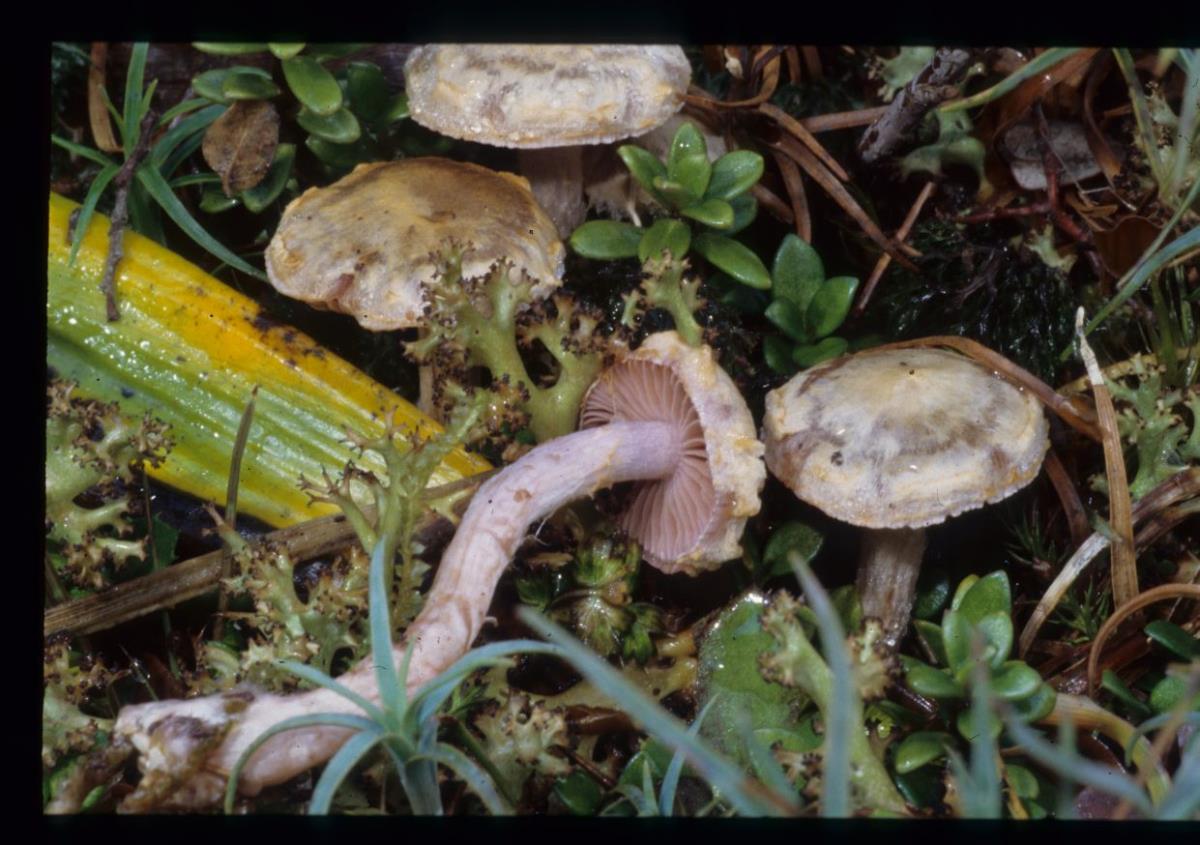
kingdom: Fungi
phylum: Basidiomycota
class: Agaricomycetes
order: Agaricales
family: Cortinariaceae
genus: Cortinarius
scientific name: Cortinarius
